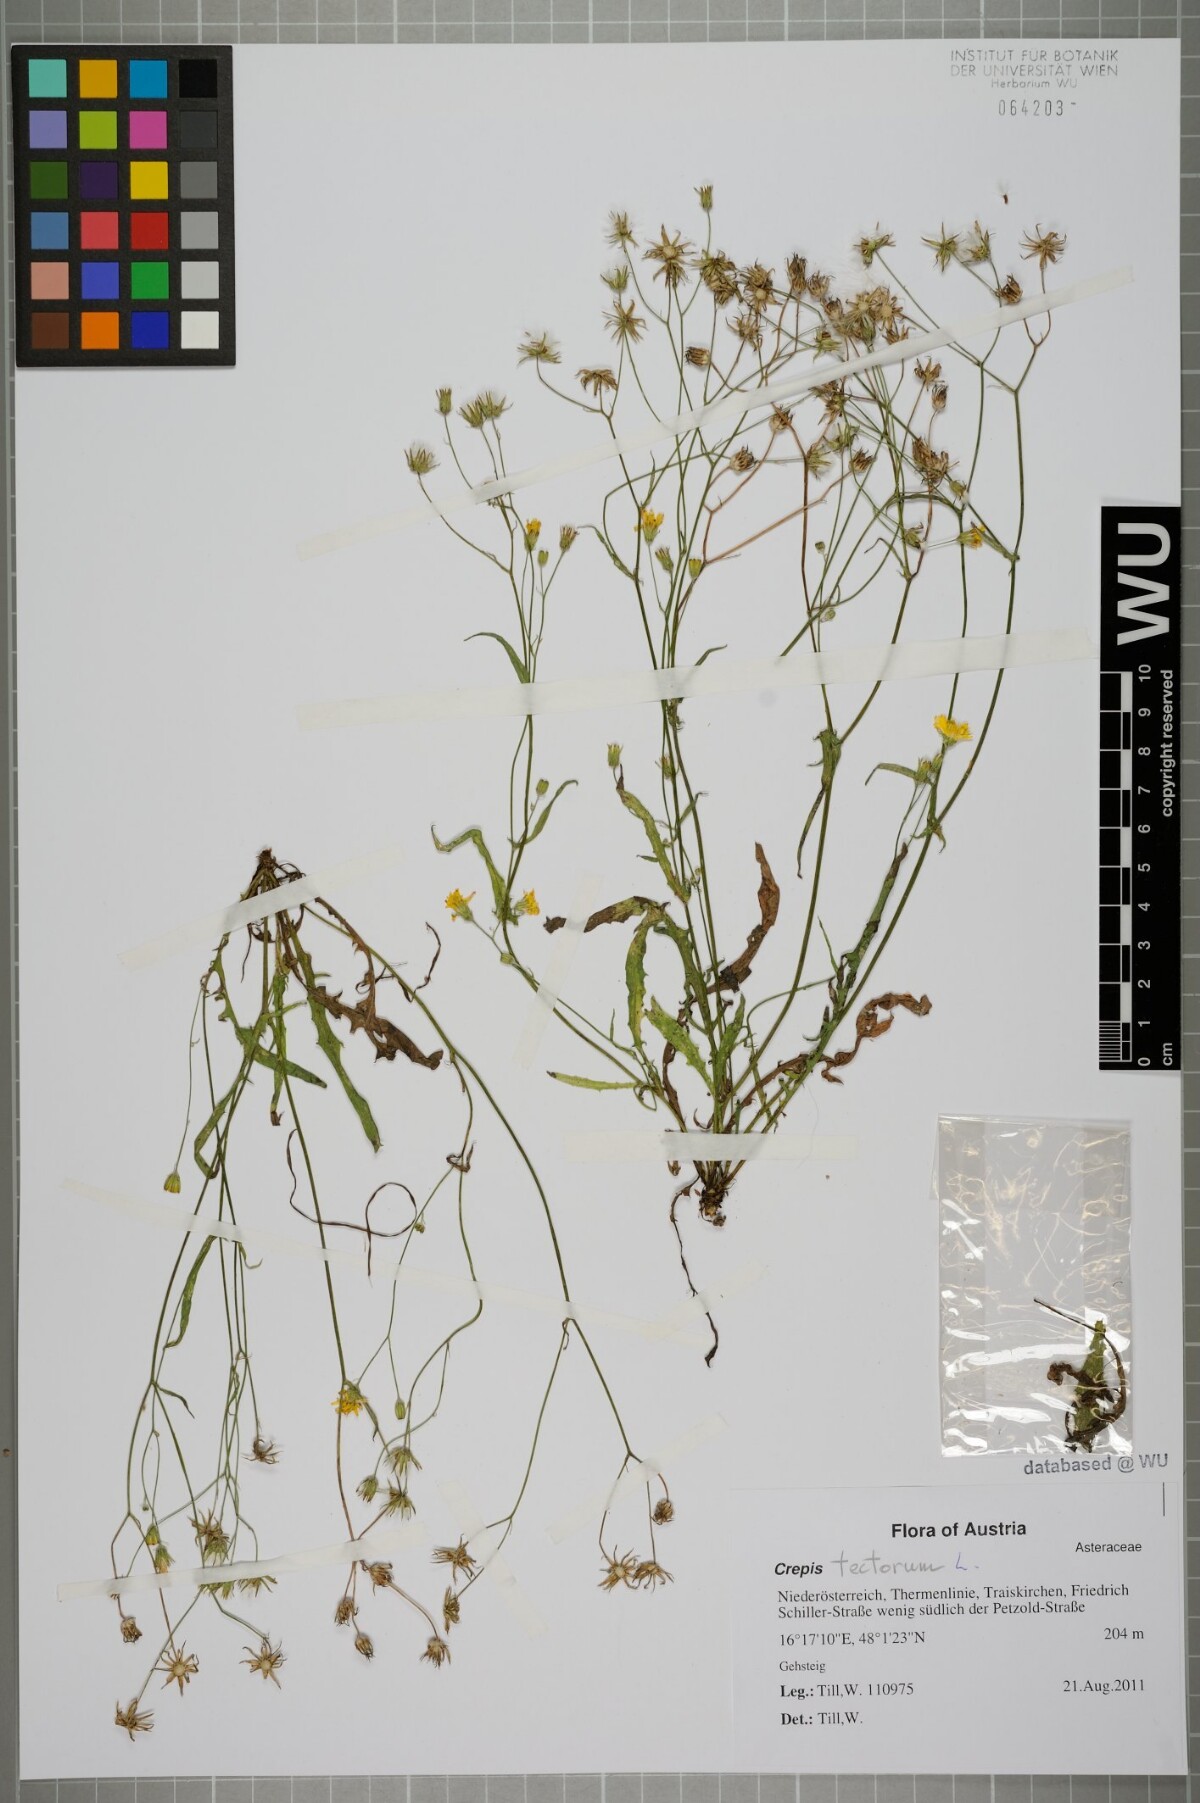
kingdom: Plantae
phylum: Tracheophyta
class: Magnoliopsida
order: Asterales
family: Asteraceae
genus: Crepis
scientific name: Crepis tectorum
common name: Narrow-leaved hawk's-beard
